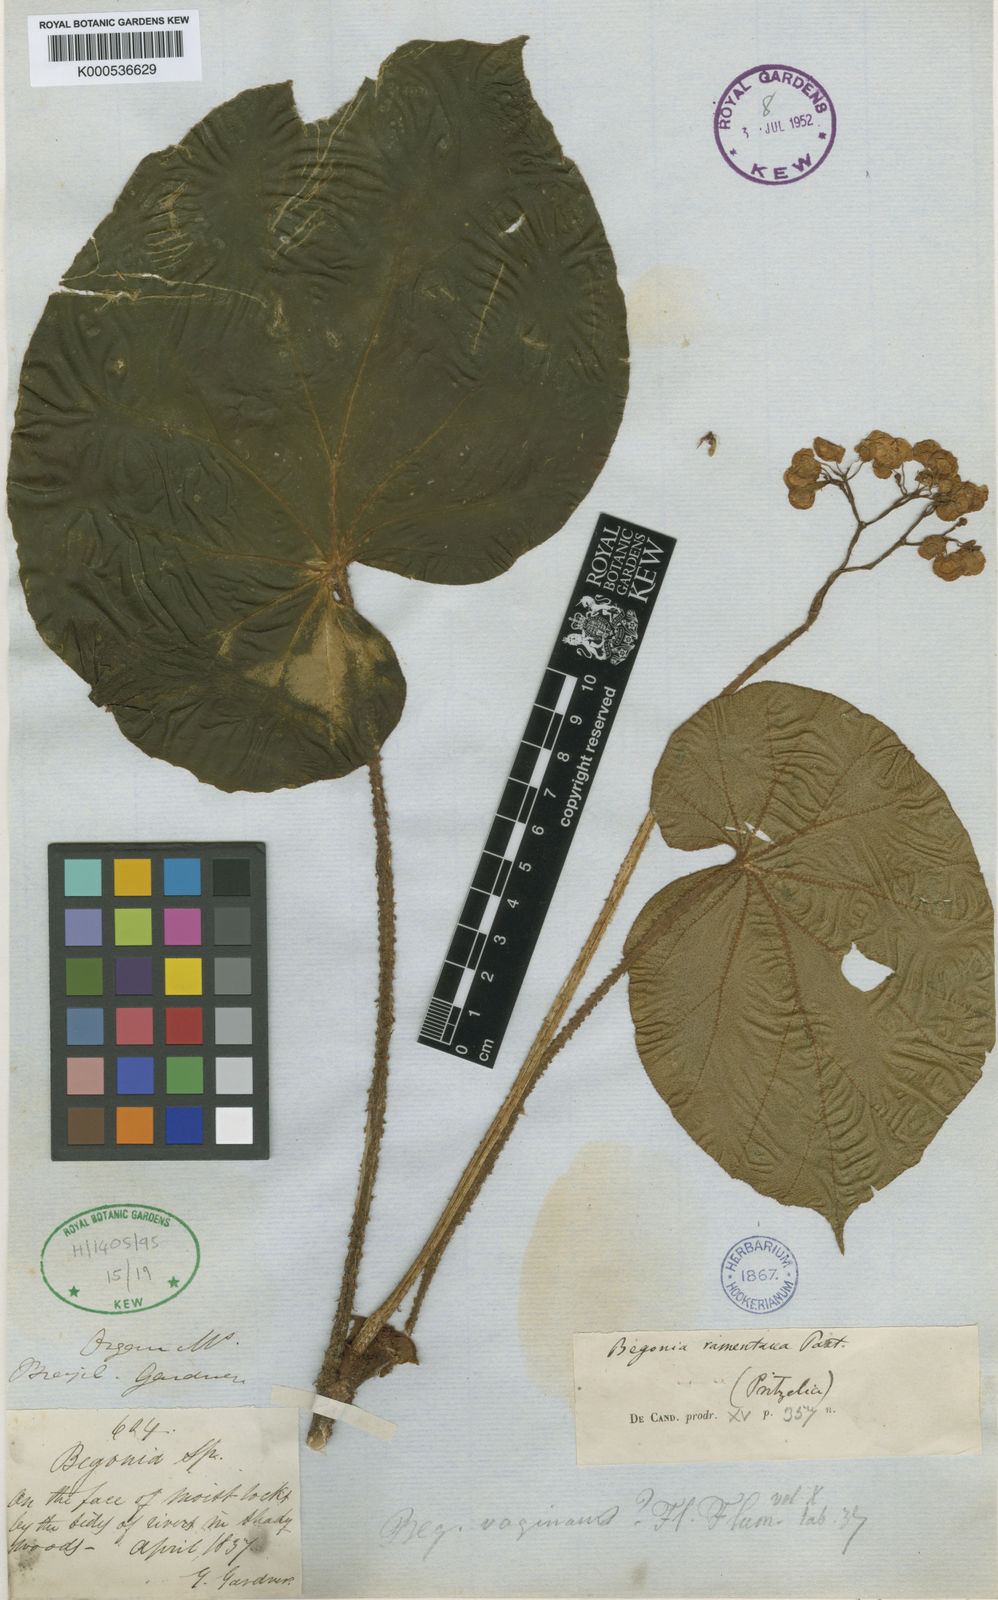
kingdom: Plantae
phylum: Tracheophyta
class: Magnoliopsida
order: Cucurbitales
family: Begoniaceae
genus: Begonia
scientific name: Begonia ramentacea
